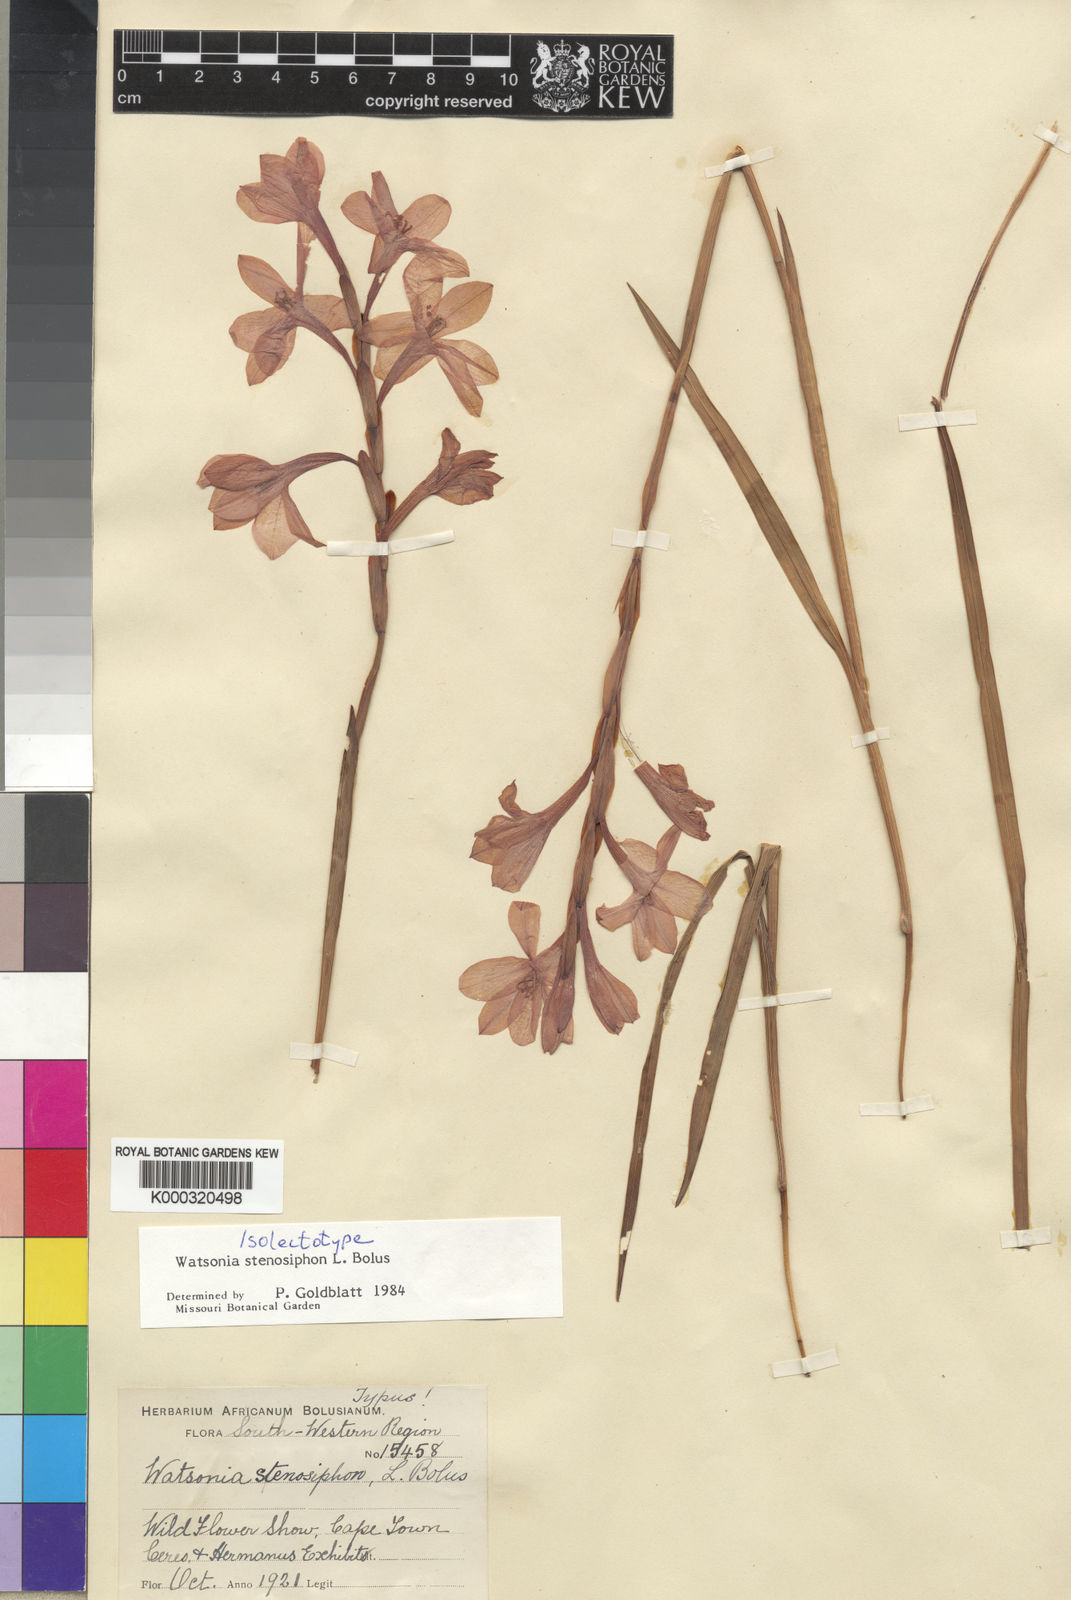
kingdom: Plantae
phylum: Tracheophyta
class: Liliopsida
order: Asparagales
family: Iridaceae
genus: Watsonia
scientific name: Watsonia stenosiphon
